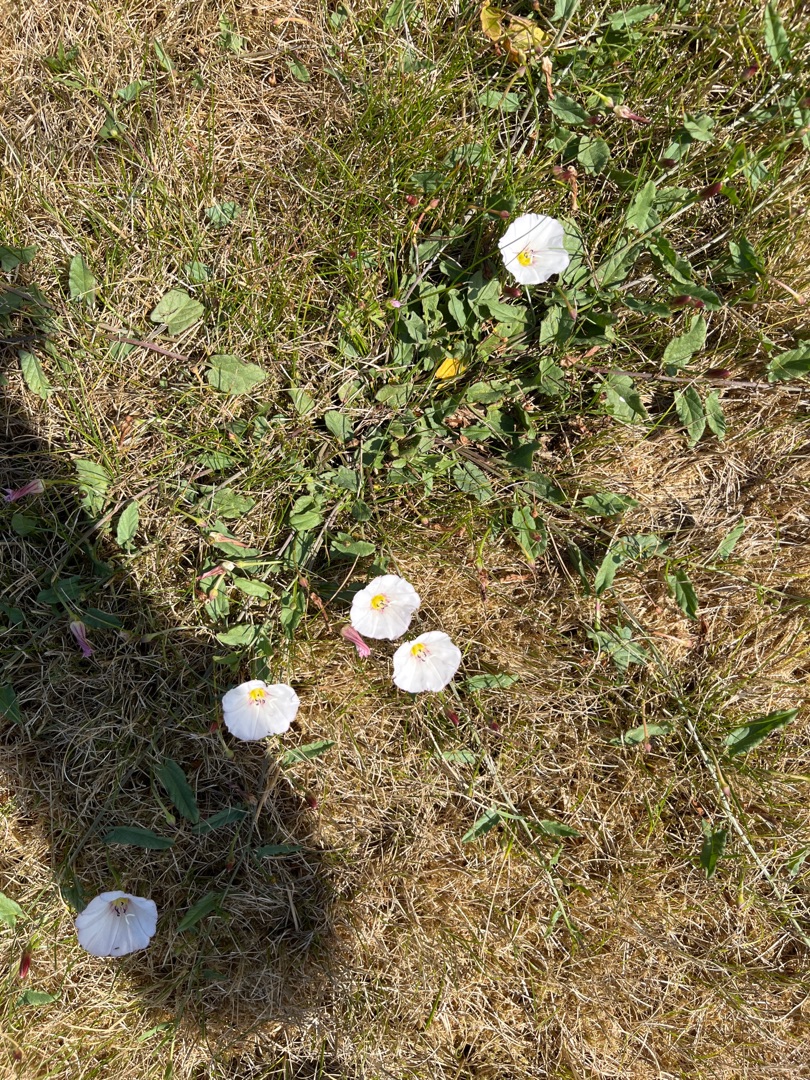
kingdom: Plantae
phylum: Tracheophyta
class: Magnoliopsida
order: Solanales
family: Convolvulaceae
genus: Convolvulus
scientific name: Convolvulus arvensis
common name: Ager-snerle
